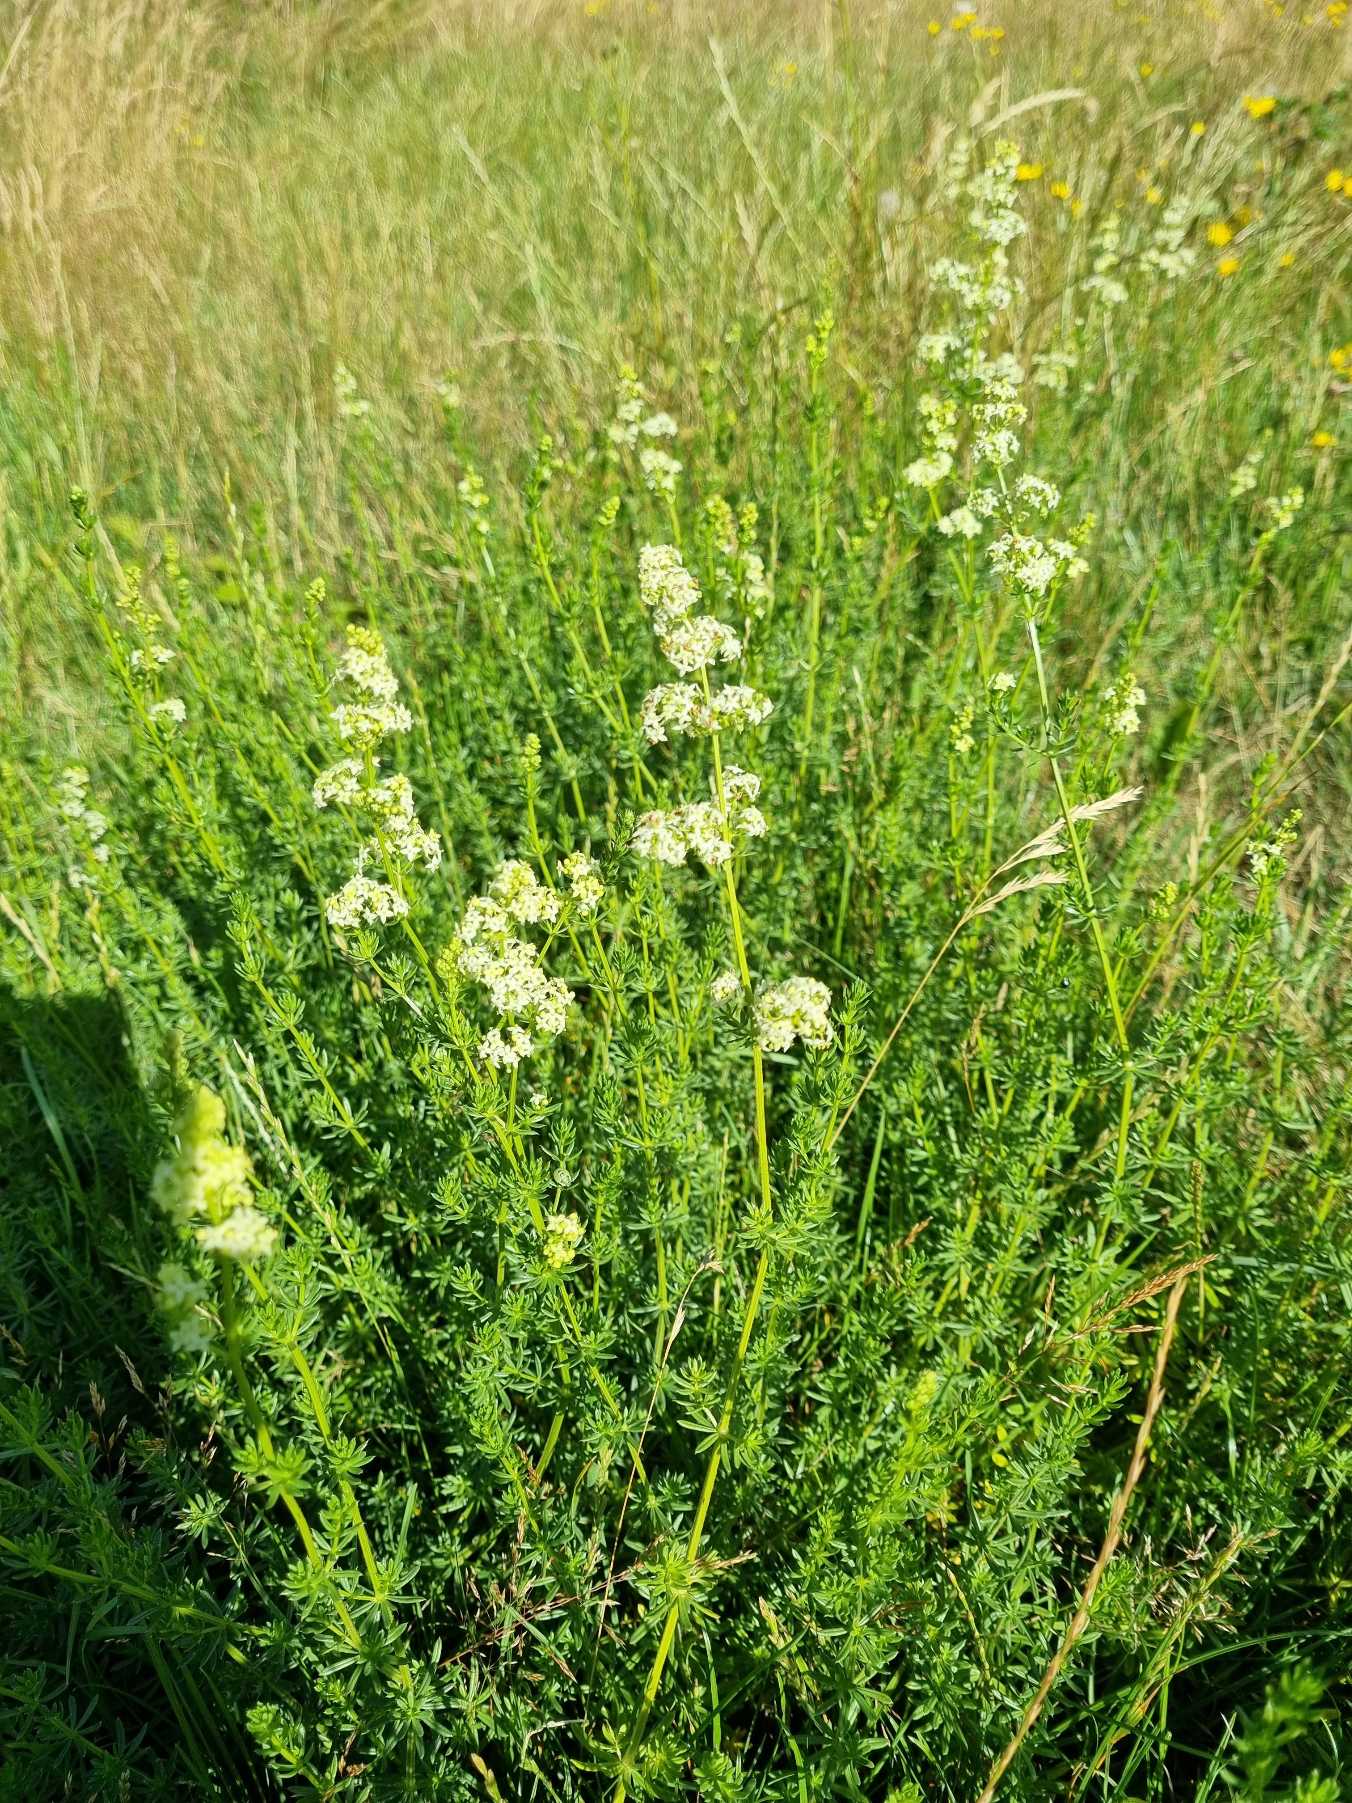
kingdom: Plantae
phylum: Tracheophyta
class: Magnoliopsida
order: Gentianales
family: Rubiaceae
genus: Galium
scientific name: Galium mollugo
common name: Hvid snerre
